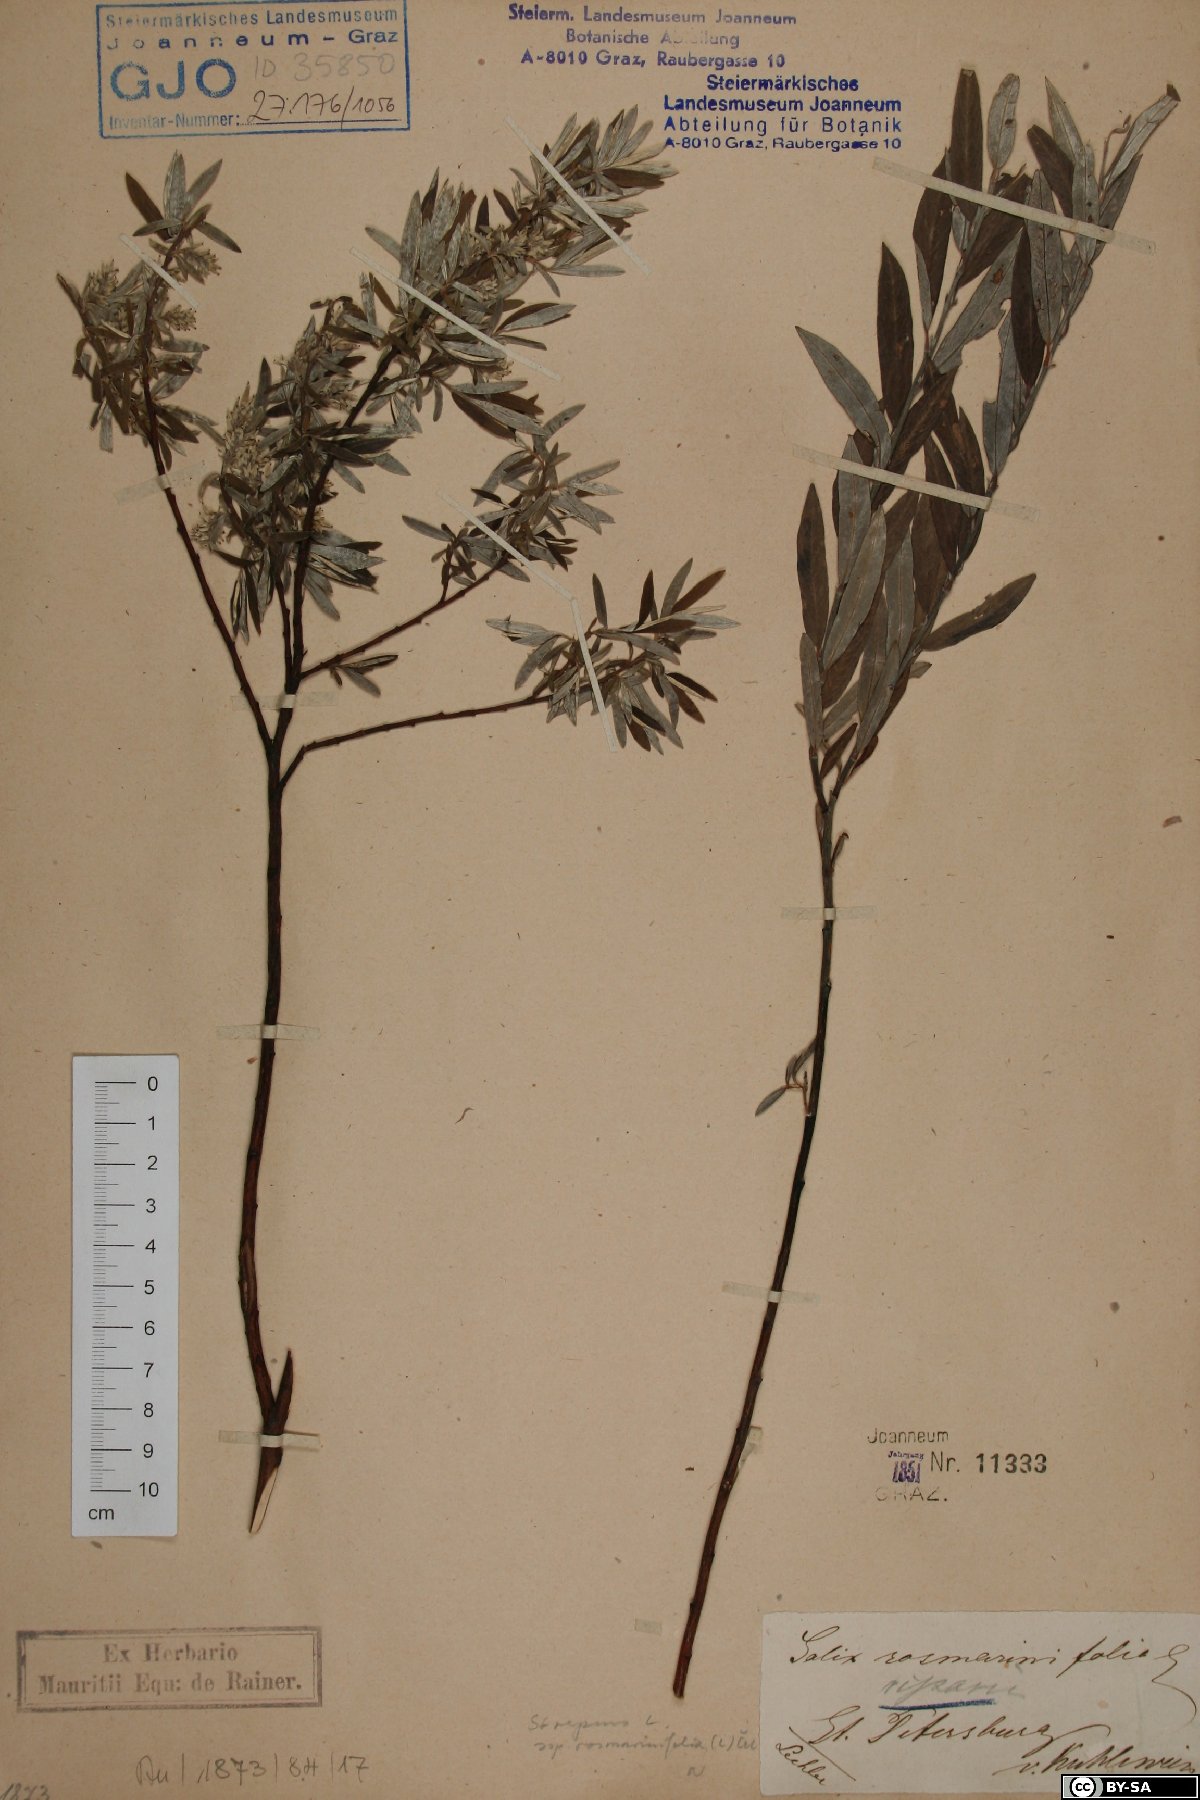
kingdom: Plantae
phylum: Tracheophyta
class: Magnoliopsida
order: Malpighiales
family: Salicaceae
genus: Salix
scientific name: Salix repens
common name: Creeping willow
